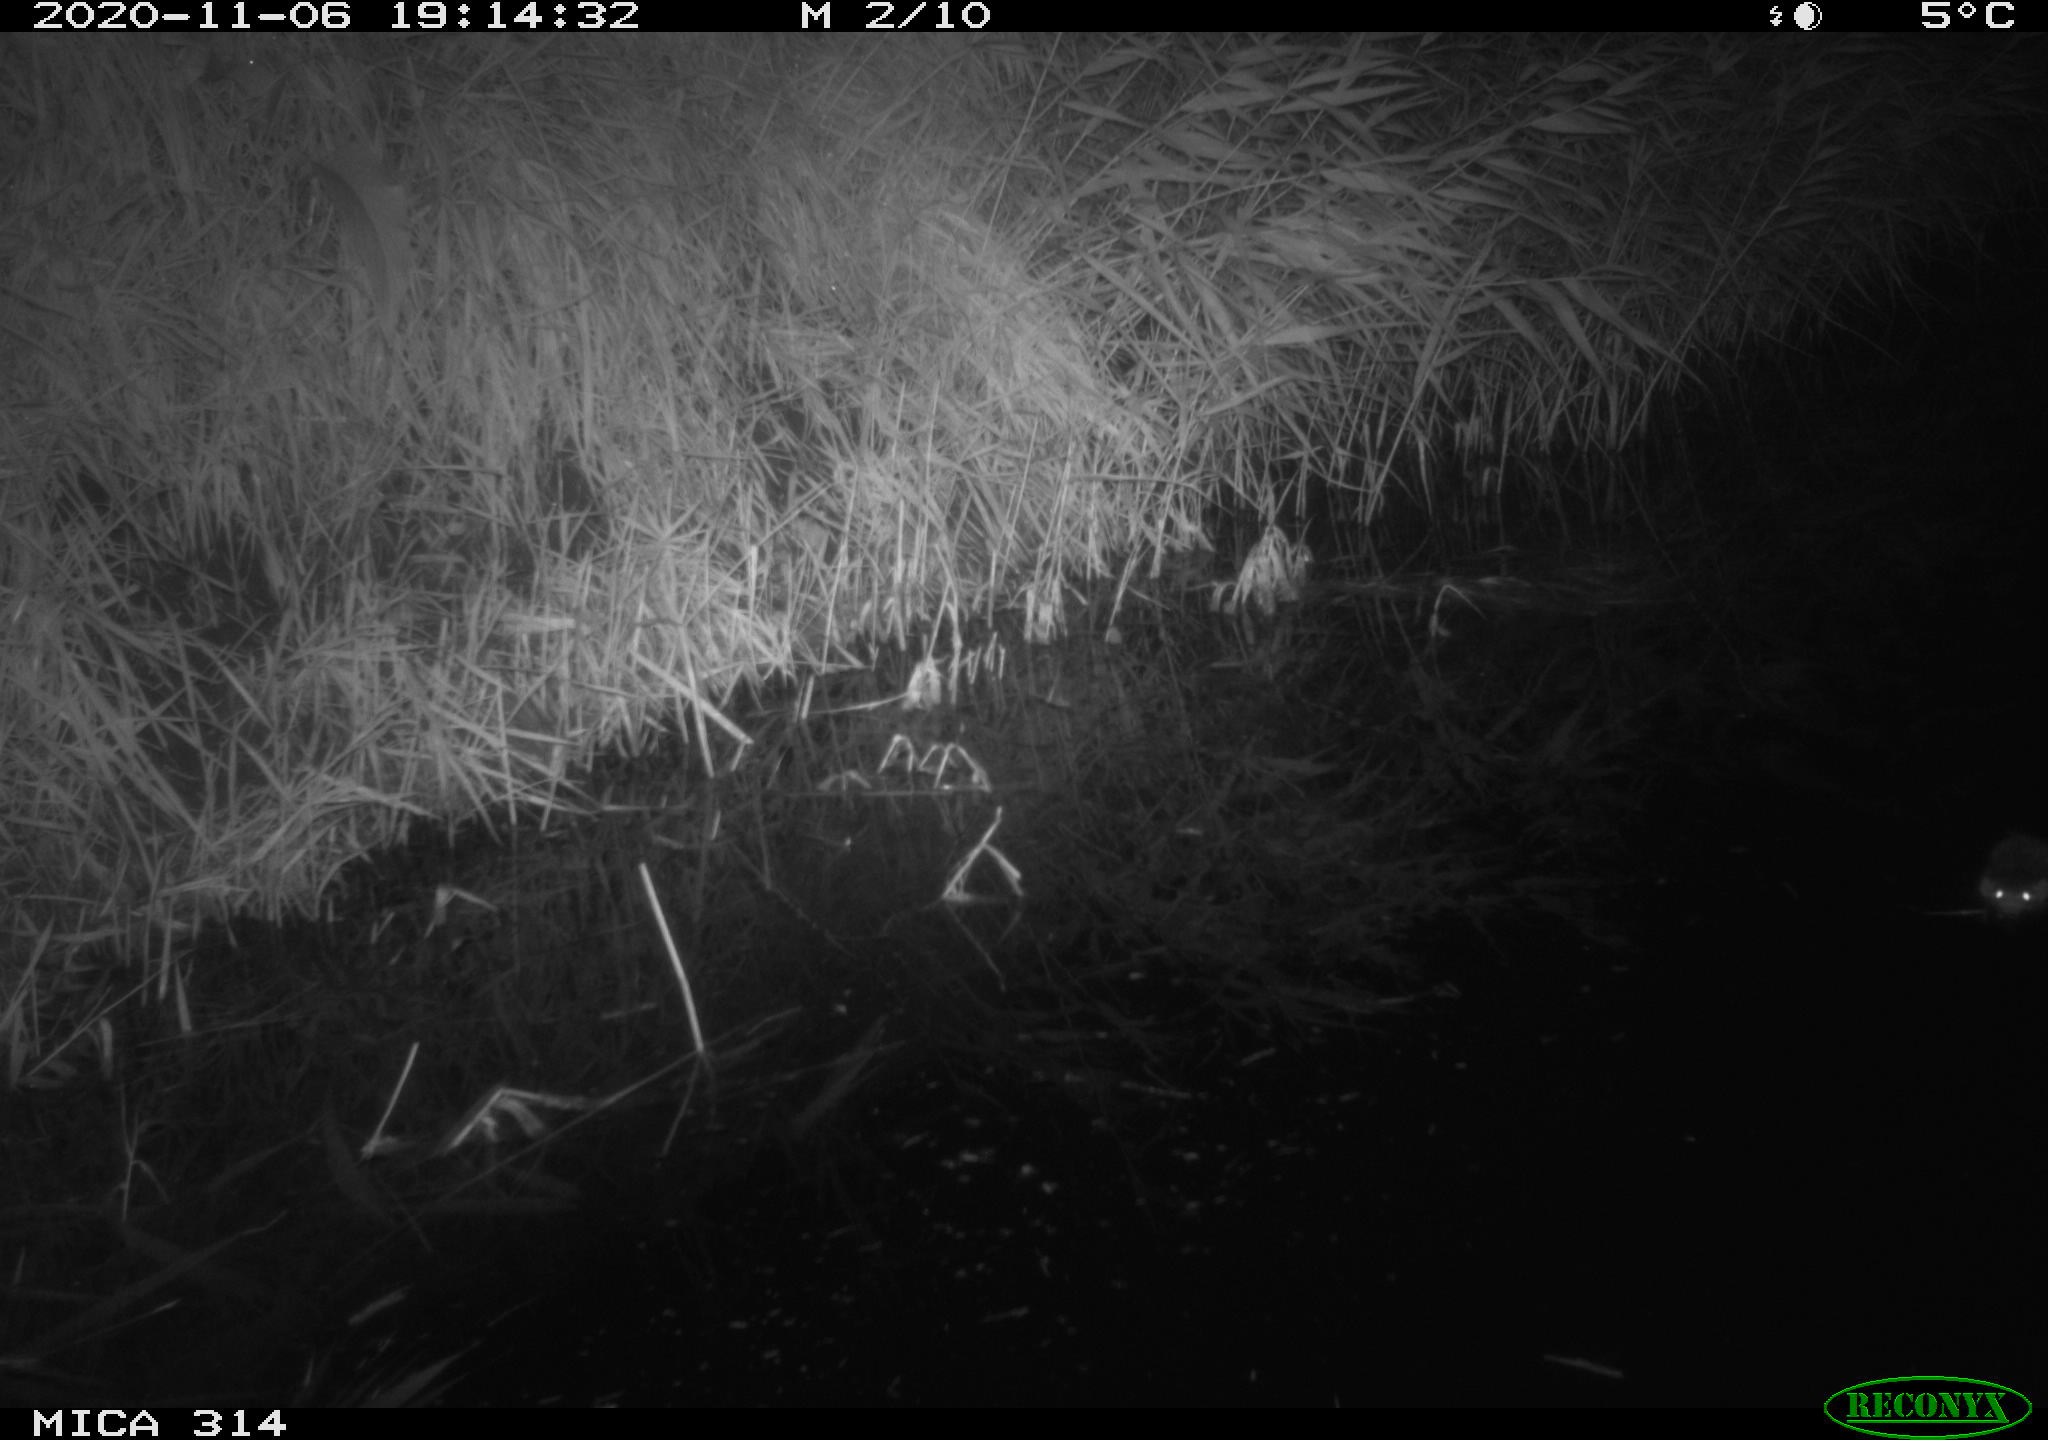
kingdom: Animalia
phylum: Chordata
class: Mammalia
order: Rodentia
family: Muridae
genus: Rattus
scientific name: Rattus norvegicus
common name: Brown rat
